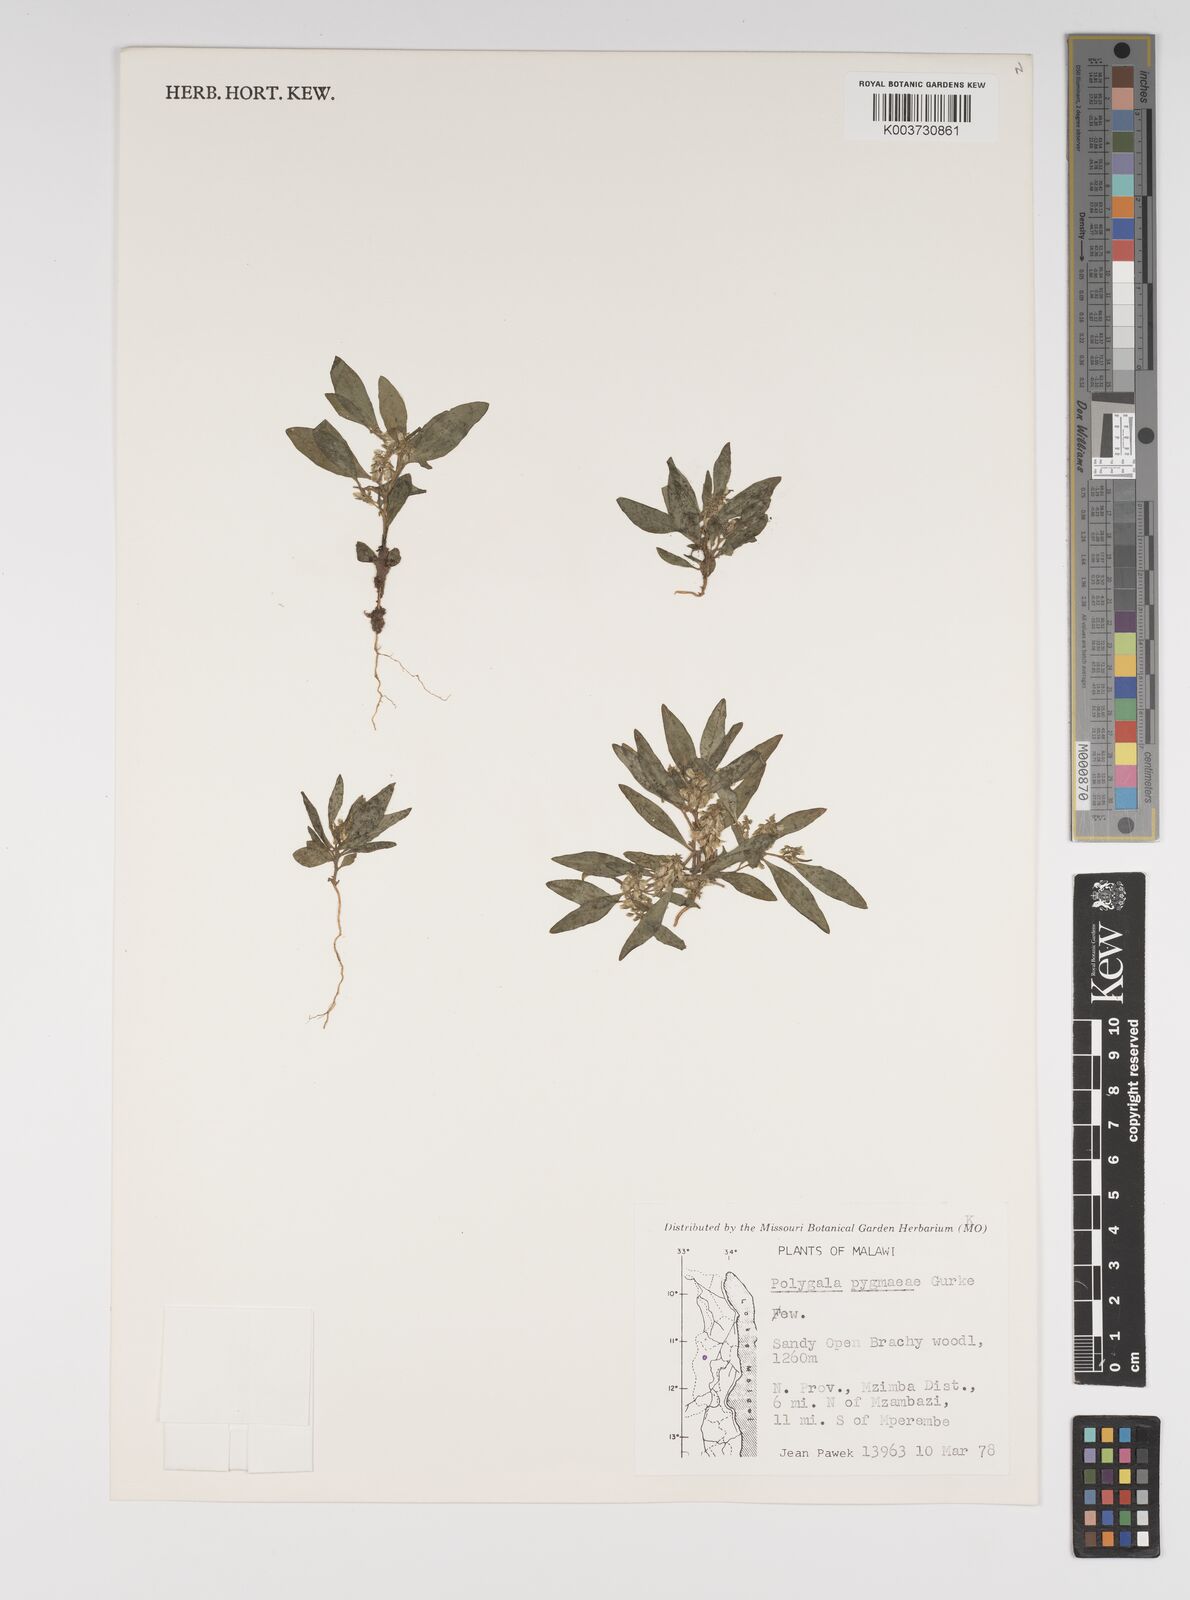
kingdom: Plantae
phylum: Tracheophyta
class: Magnoliopsida
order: Fabales
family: Polygalaceae
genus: Polygala
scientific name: Polygala welwitschii
